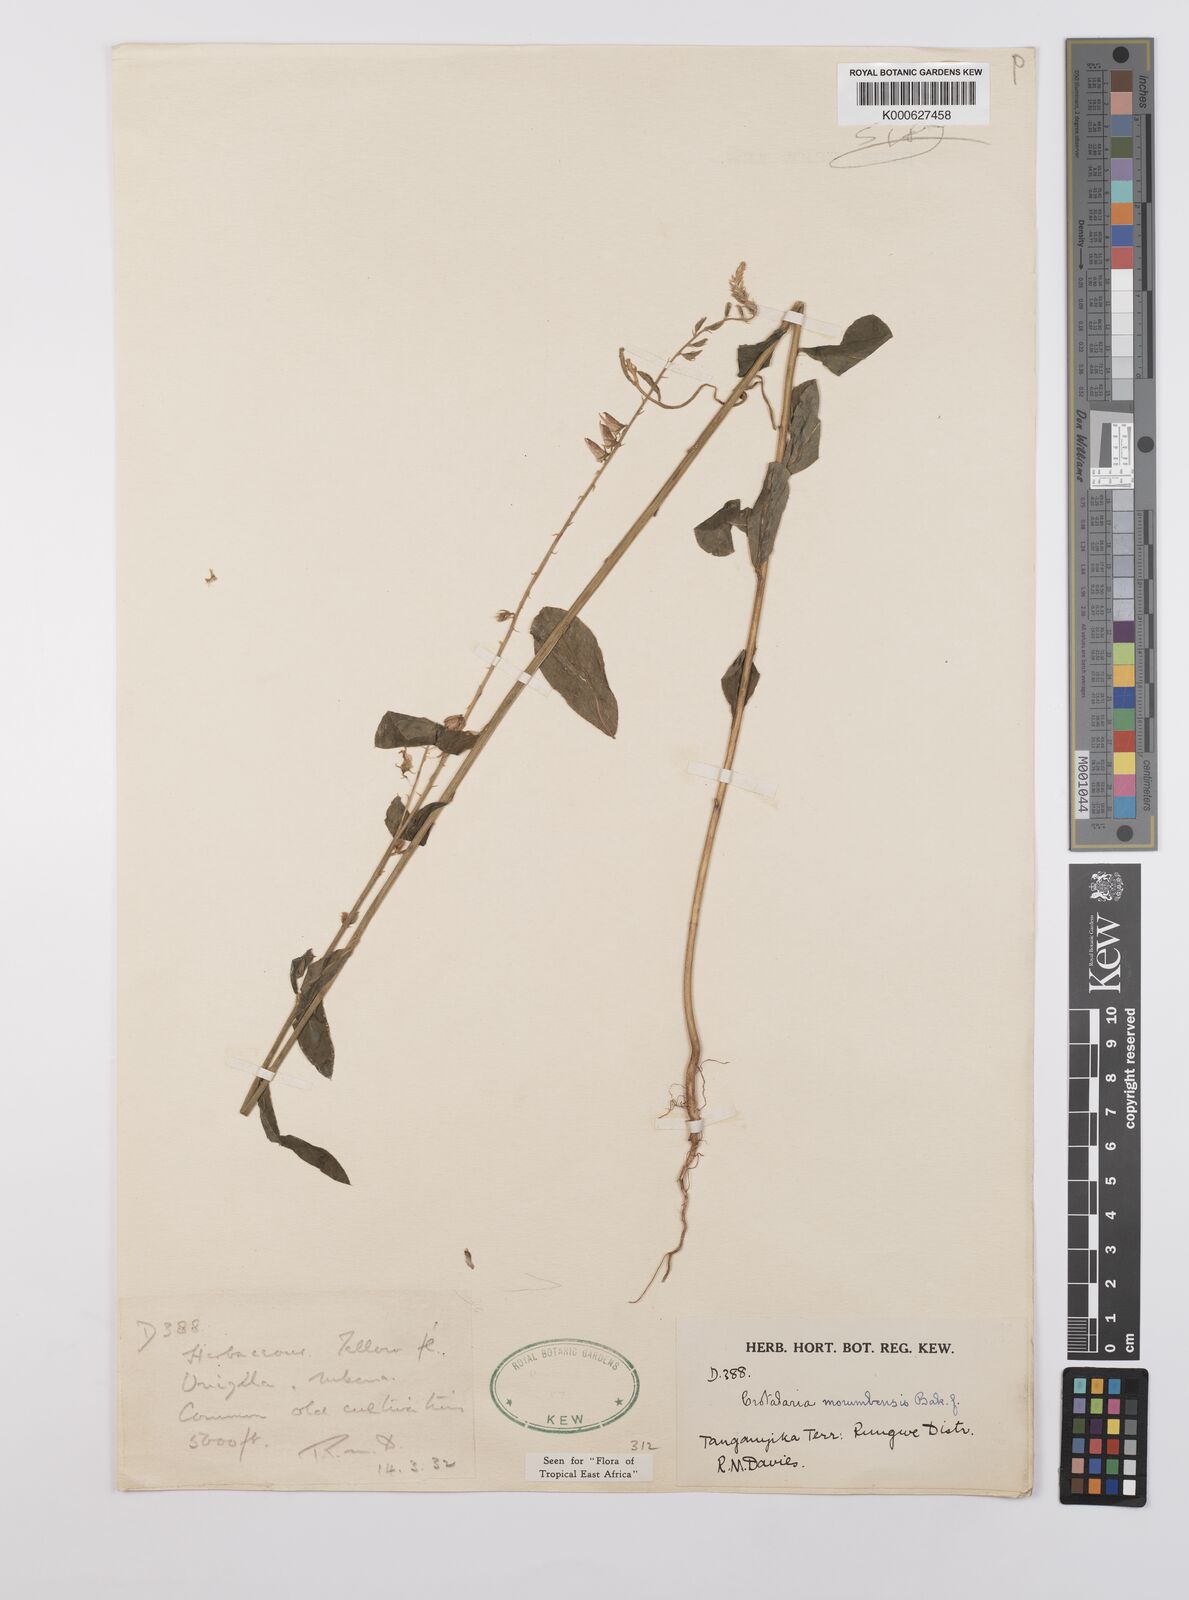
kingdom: Plantae
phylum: Tracheophyta
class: Magnoliopsida
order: Fabales
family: Fabaceae
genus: Crotalaria
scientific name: Crotalaria morumbensis
